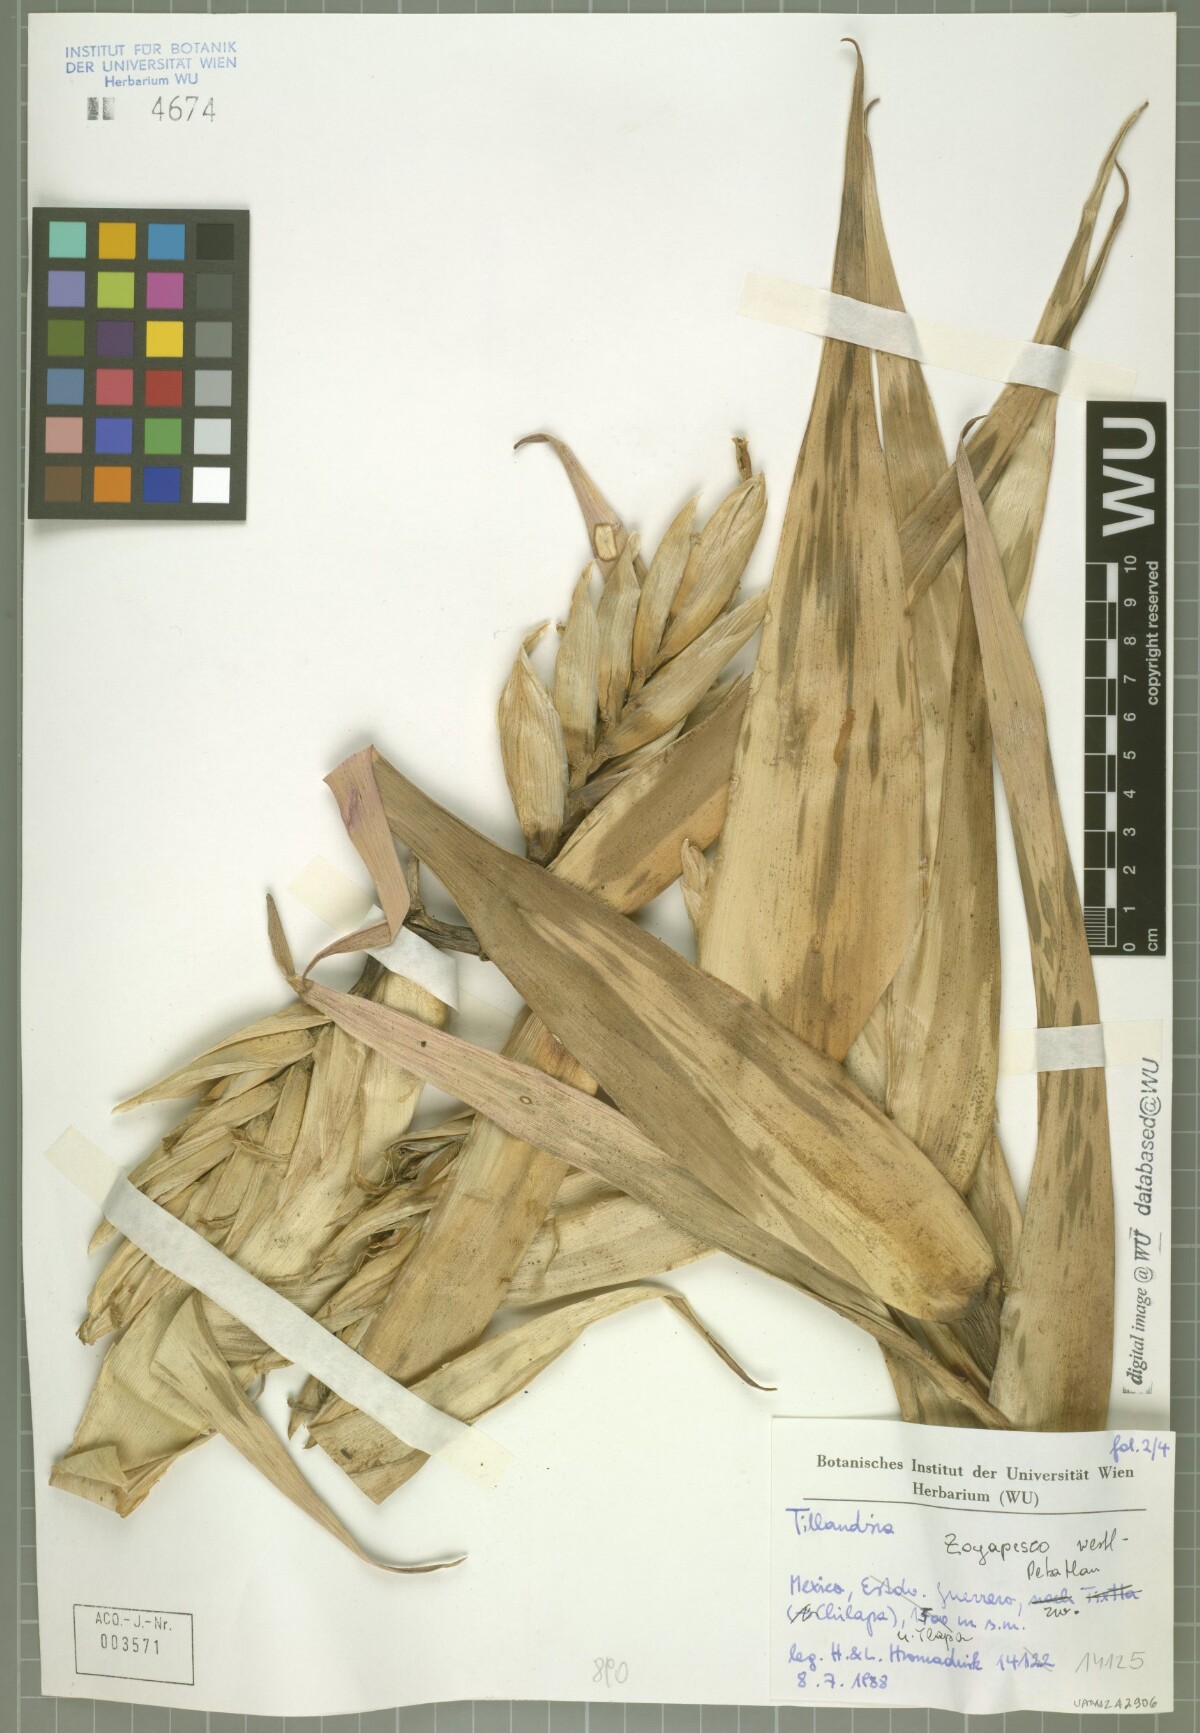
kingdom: Plantae
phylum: Tracheophyta
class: Liliopsida
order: Poales
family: Bromeliaceae
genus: Tillandsia
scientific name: Tillandsia mirabilis
